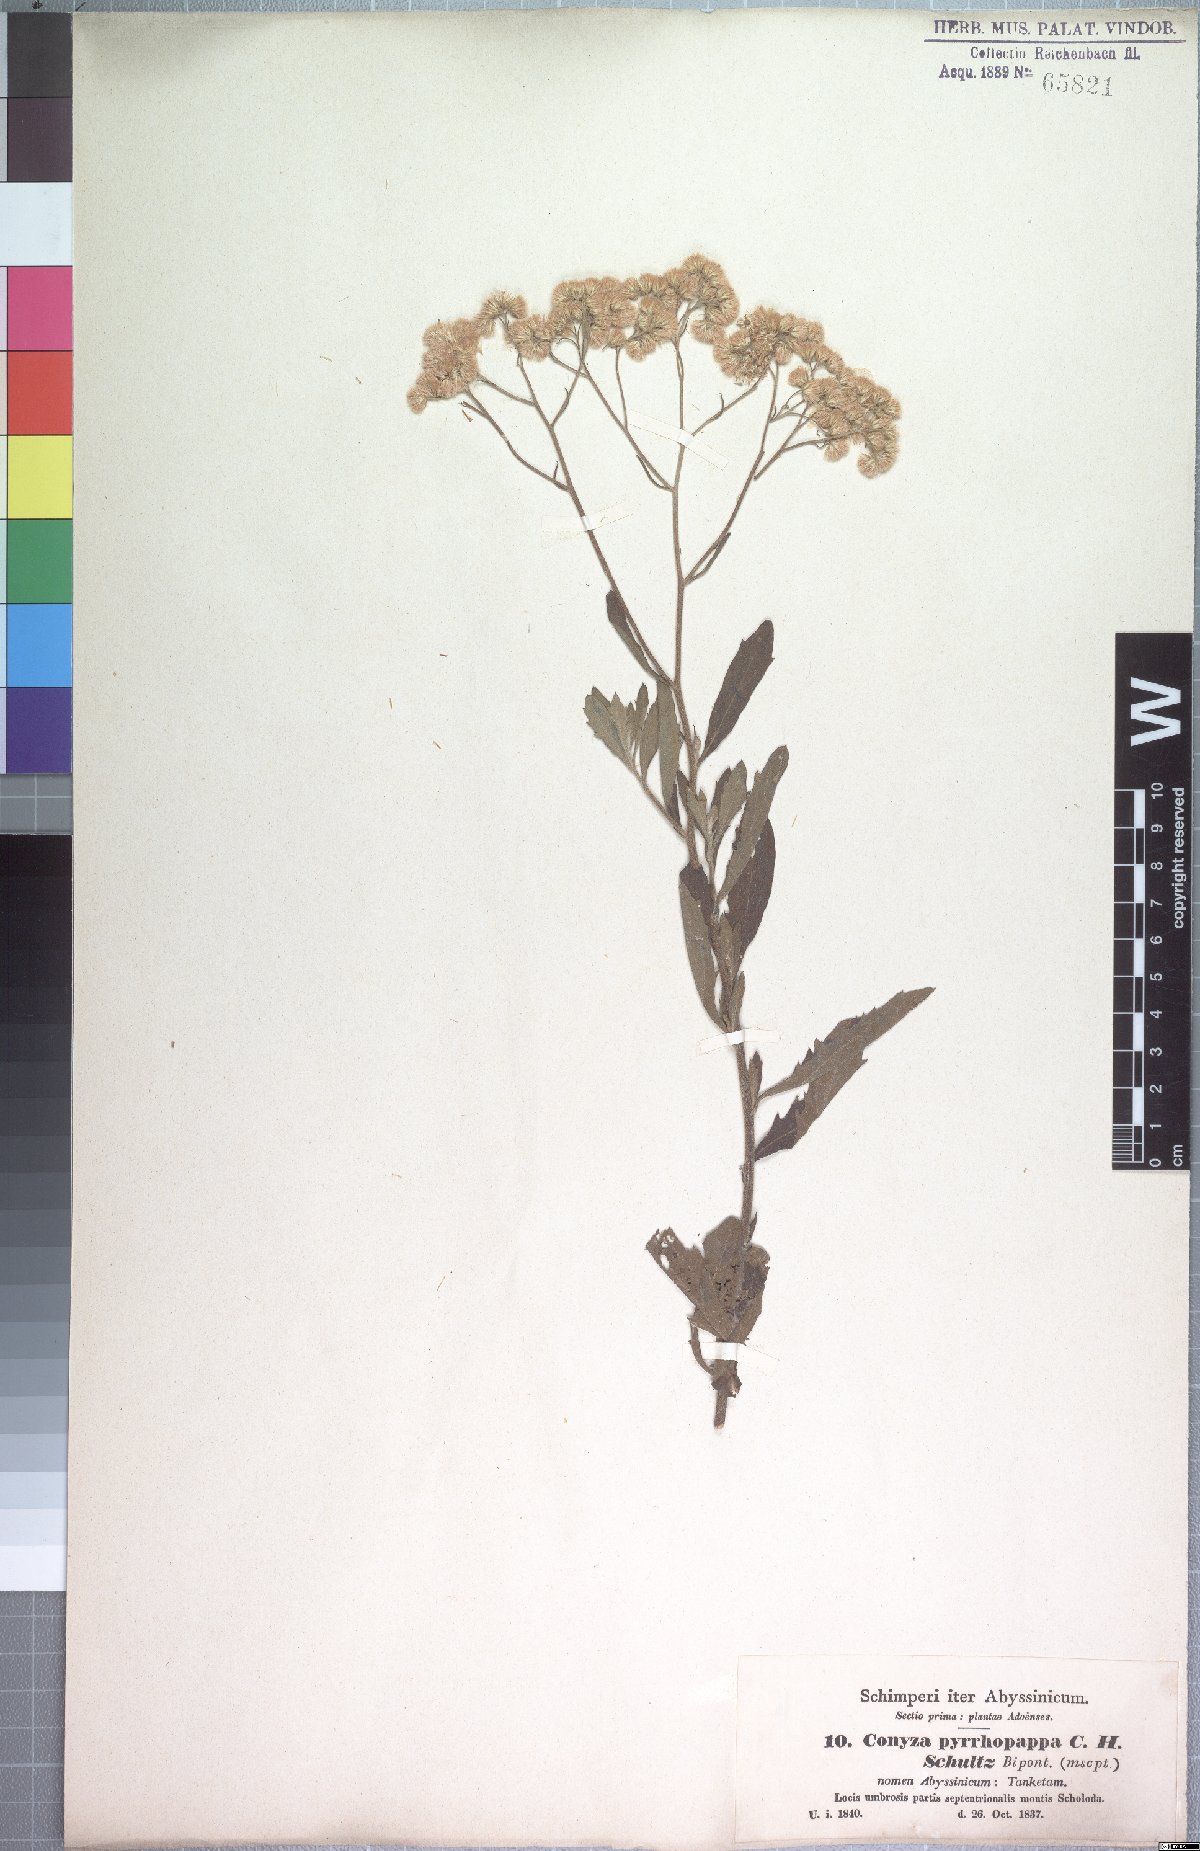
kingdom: Plantae
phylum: Tracheophyta
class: Magnoliopsida
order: Asterales
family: Asteraceae
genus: Microglossa
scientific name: Microglossa pyrrhopappa
